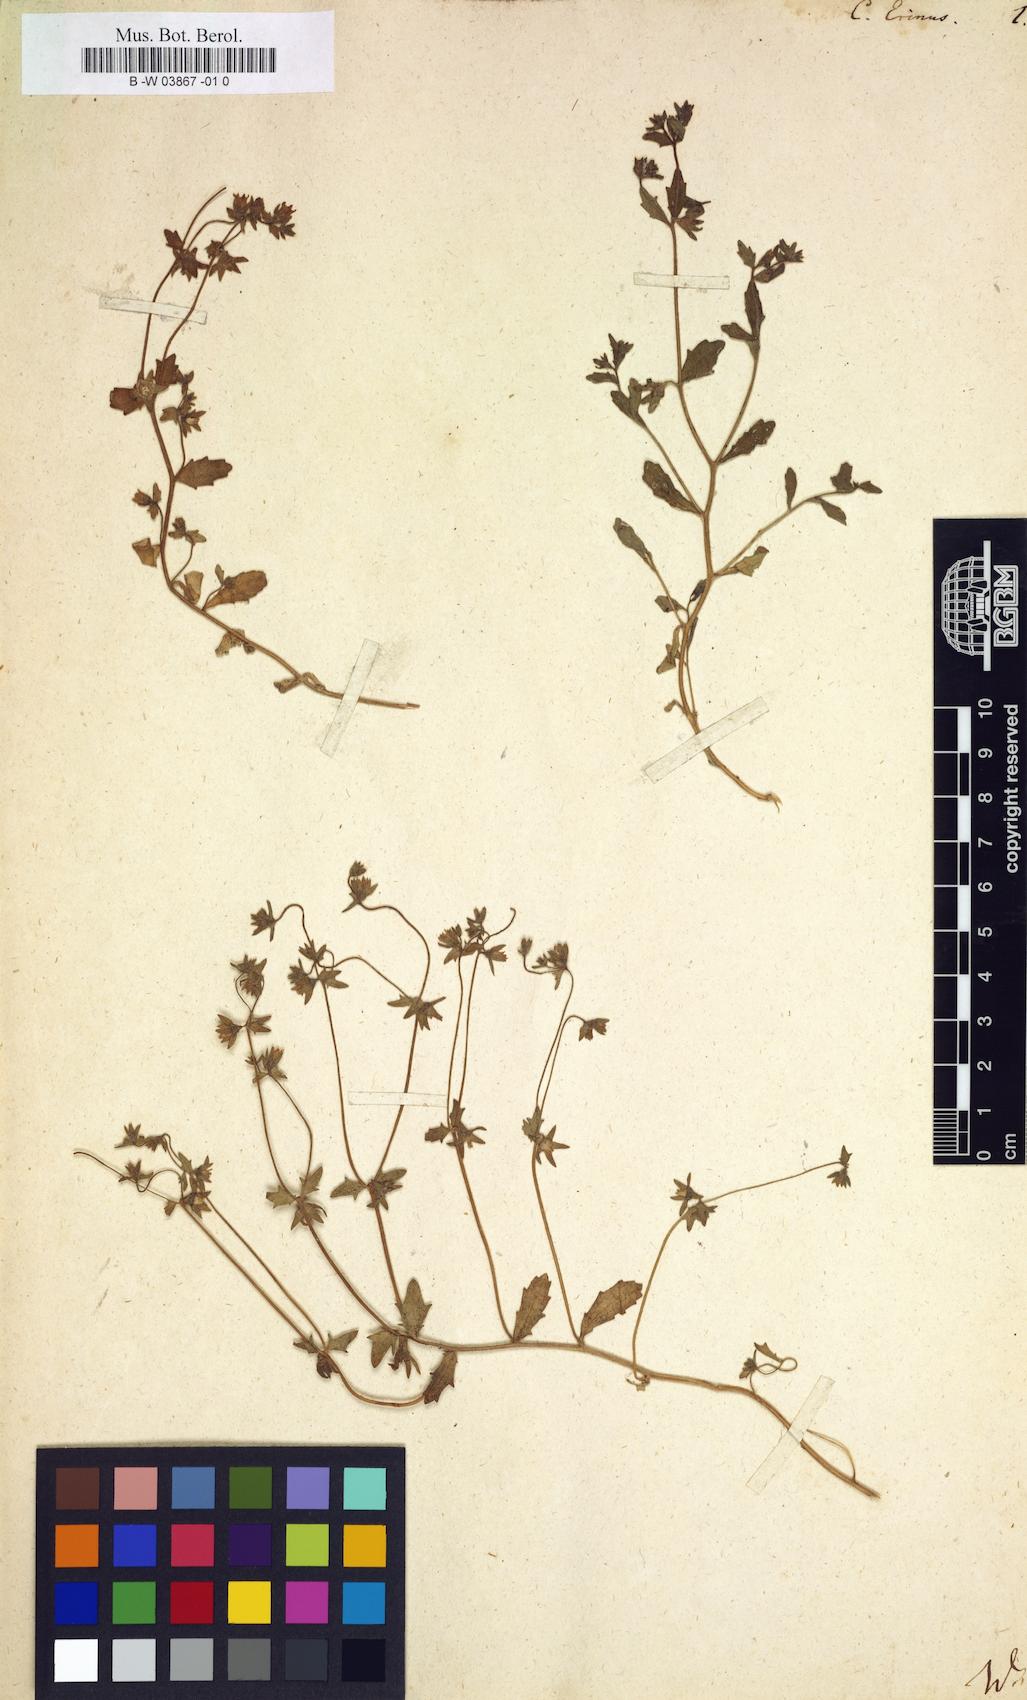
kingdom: Plantae
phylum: Tracheophyta
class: Magnoliopsida
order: Asterales
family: Campanulaceae
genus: Campanula
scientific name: Campanula erinus
